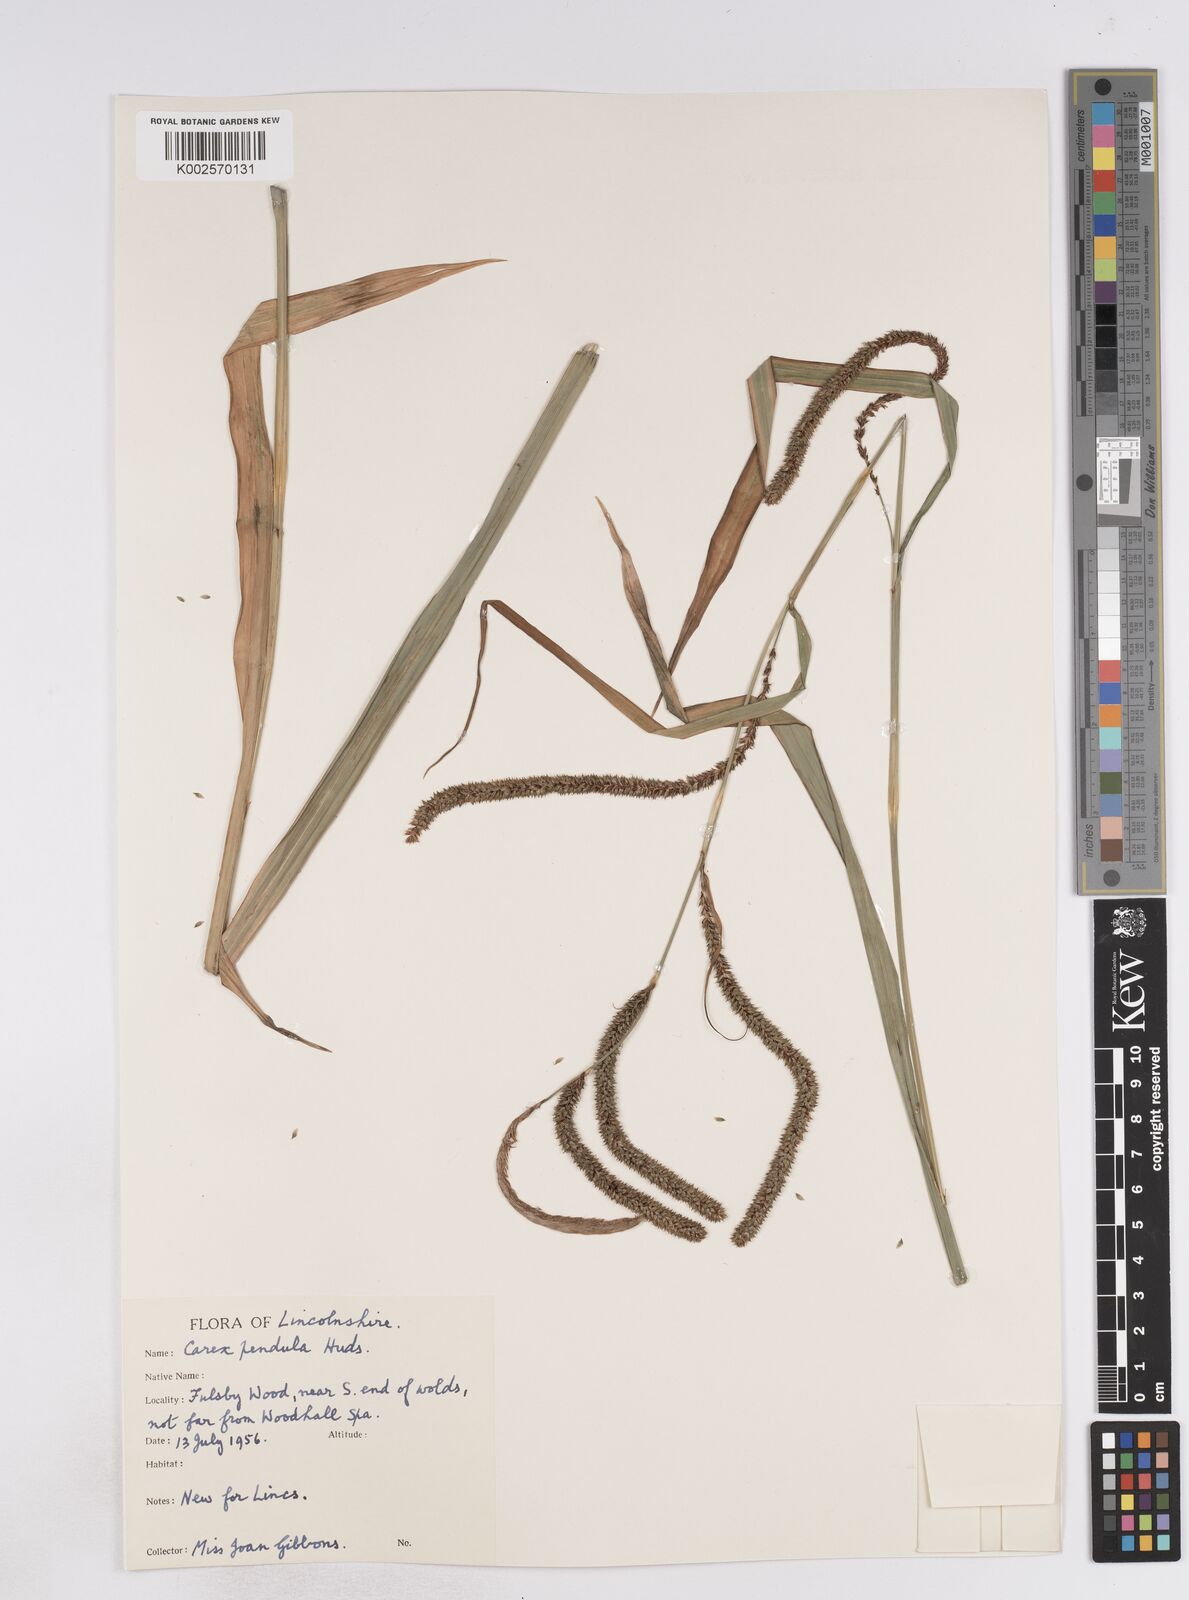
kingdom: Plantae
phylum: Tracheophyta
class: Liliopsida
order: Poales
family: Cyperaceae
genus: Carex
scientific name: Carex pendula
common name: Pendulous sedge
